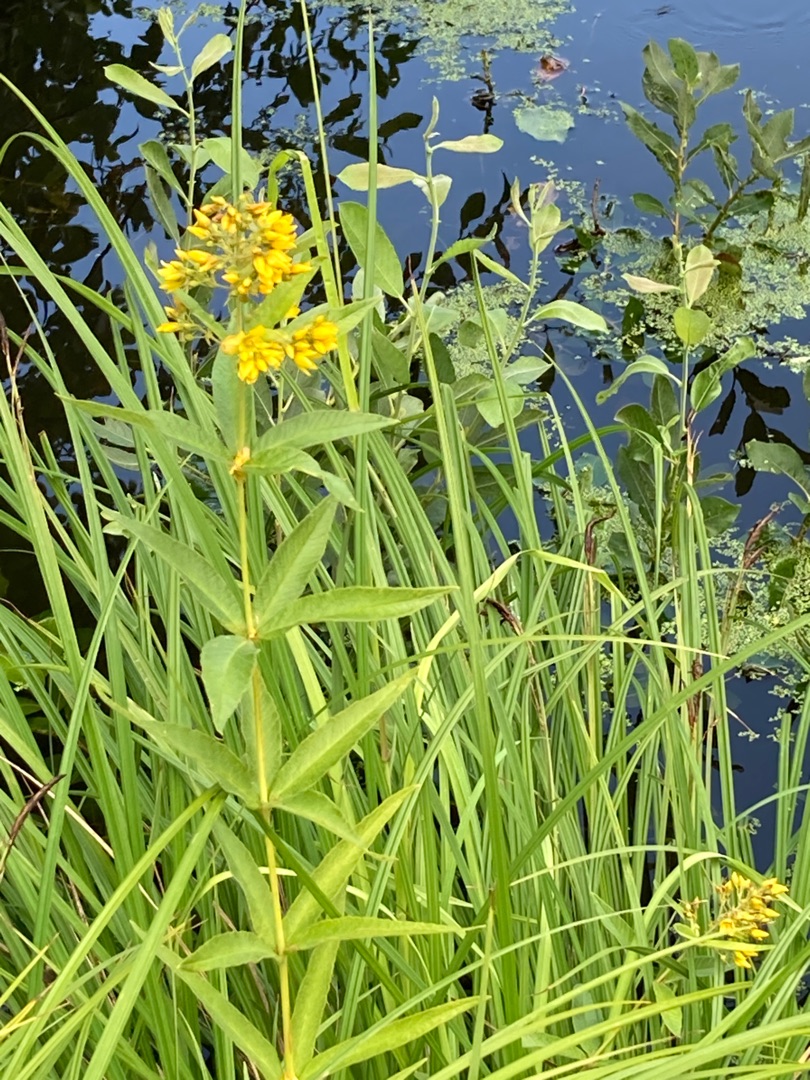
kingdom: Plantae
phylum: Tracheophyta
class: Magnoliopsida
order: Ericales
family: Primulaceae
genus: Lysimachia
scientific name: Lysimachia vulgaris
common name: Almindelig fredløs
